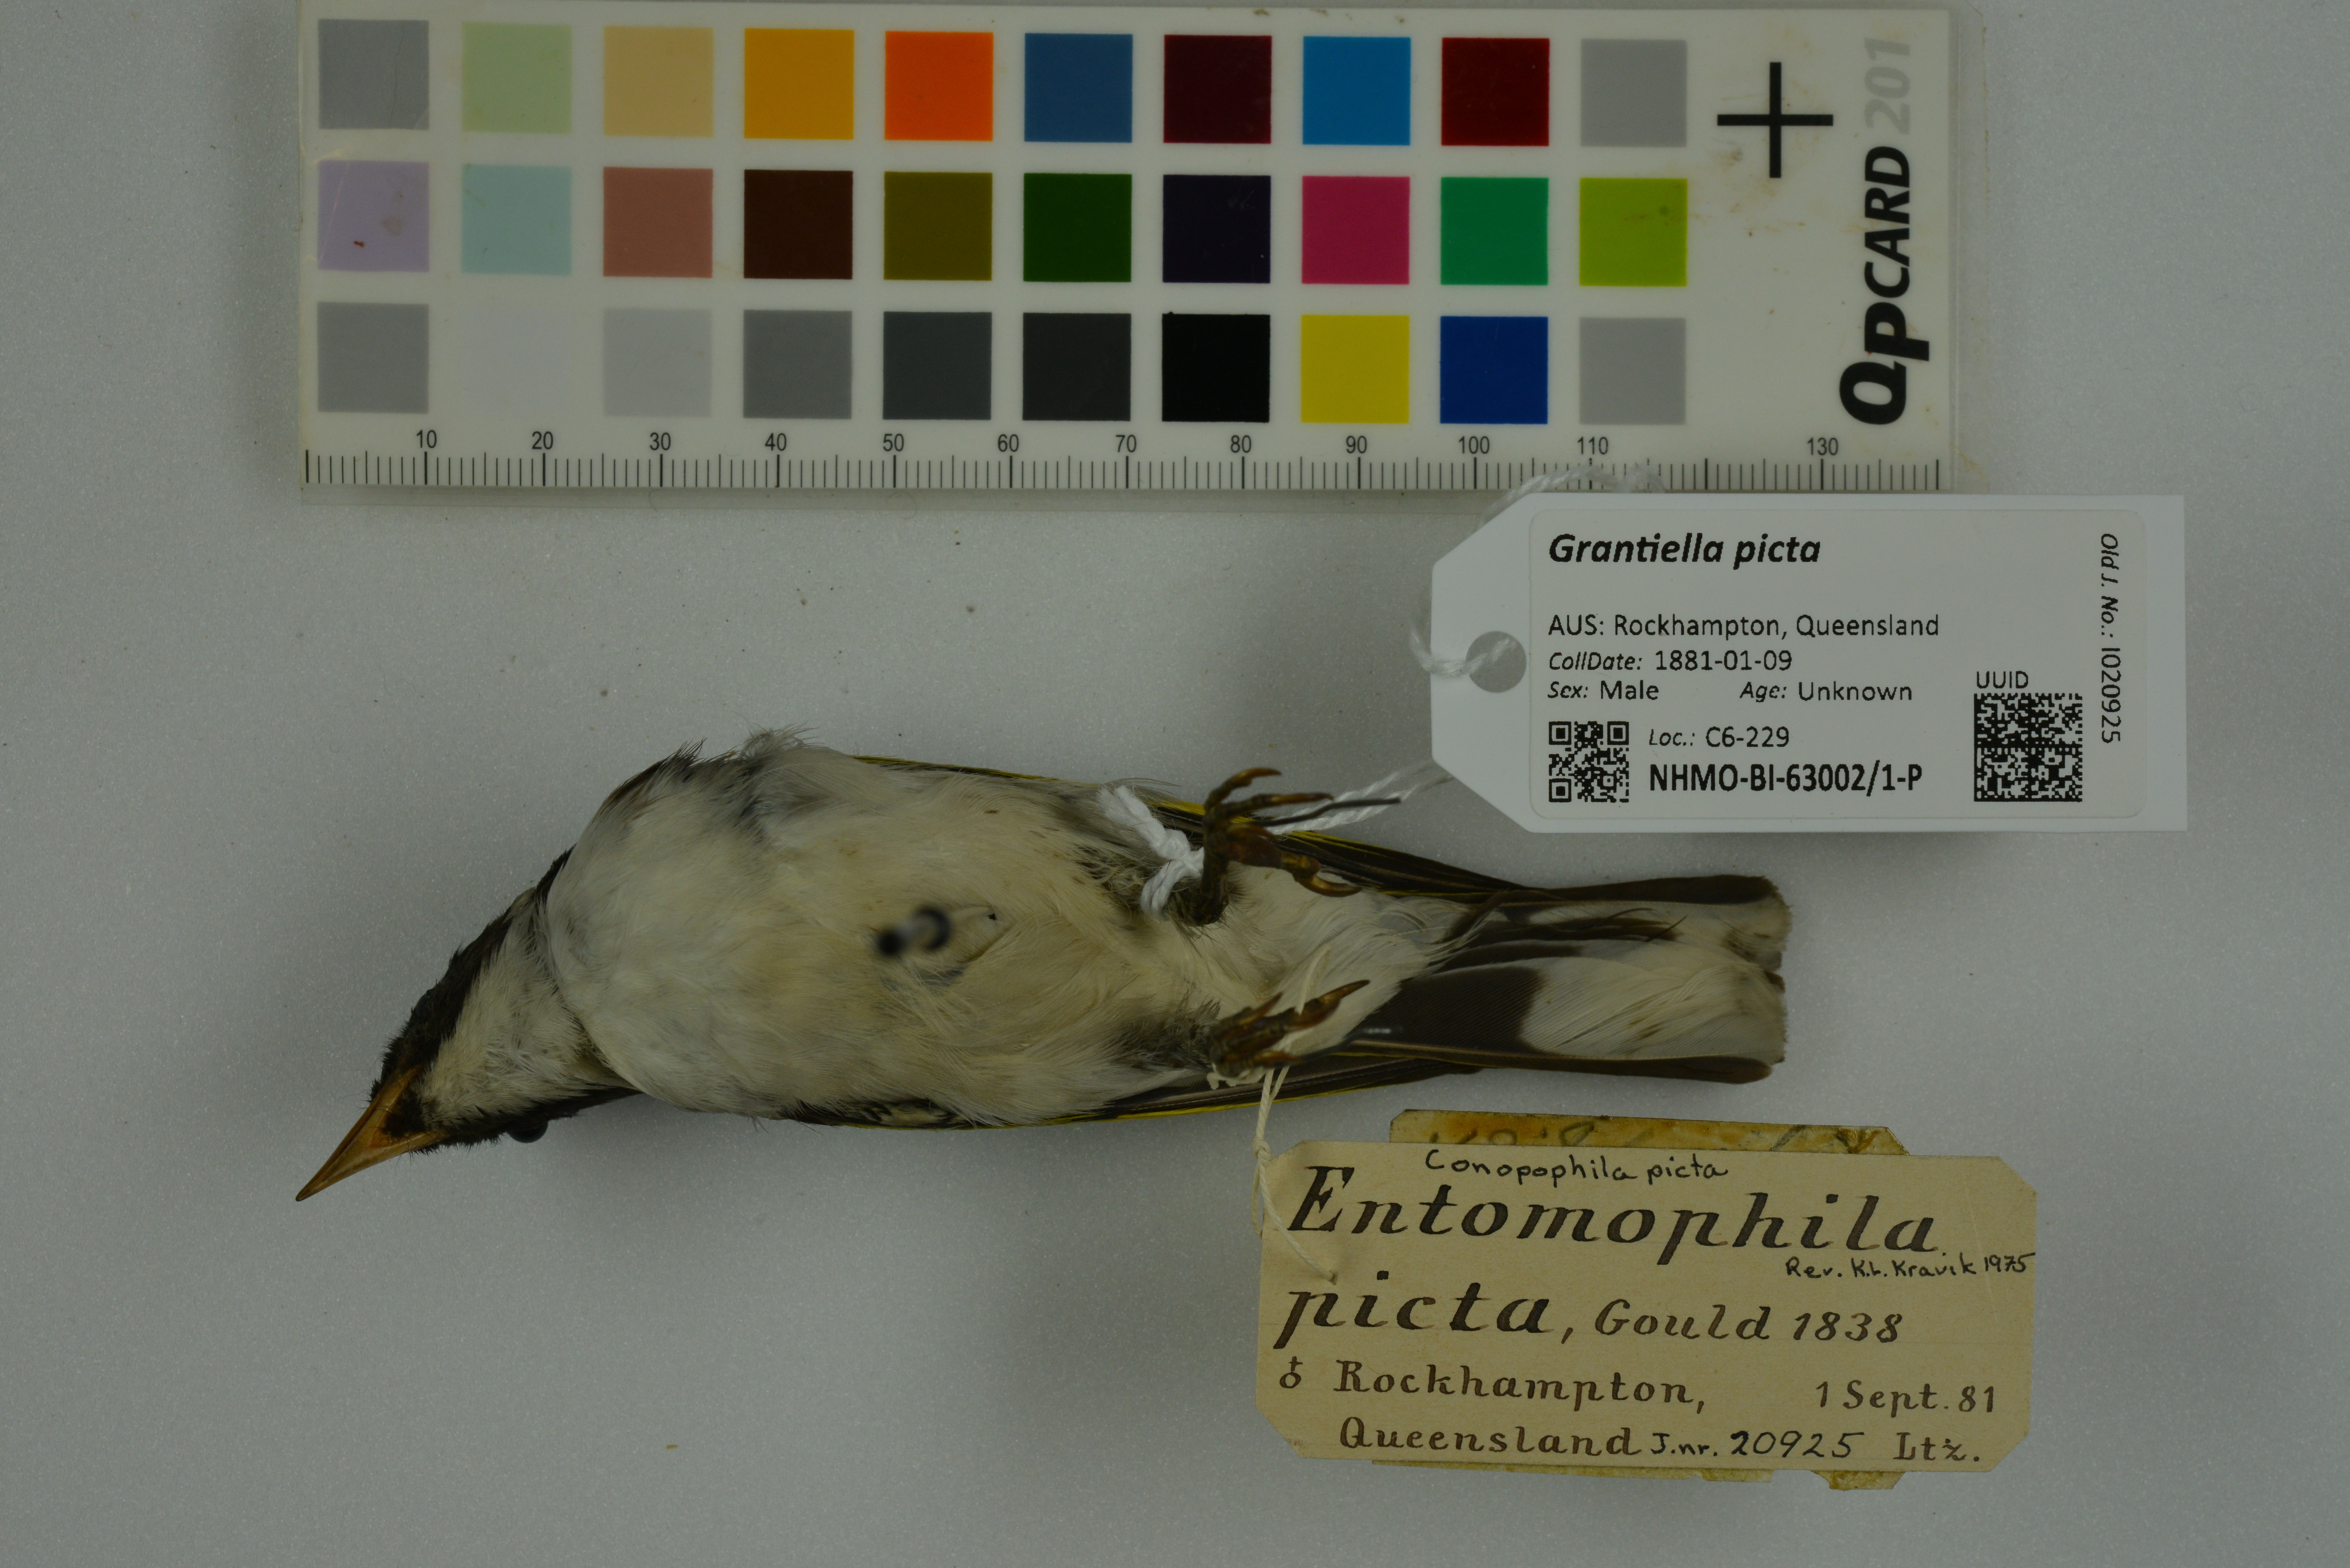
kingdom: Animalia
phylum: Chordata
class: Aves
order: Passeriformes
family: Meliphagidae
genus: Grantiella
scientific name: Grantiella picta
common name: Painted honeyeater
